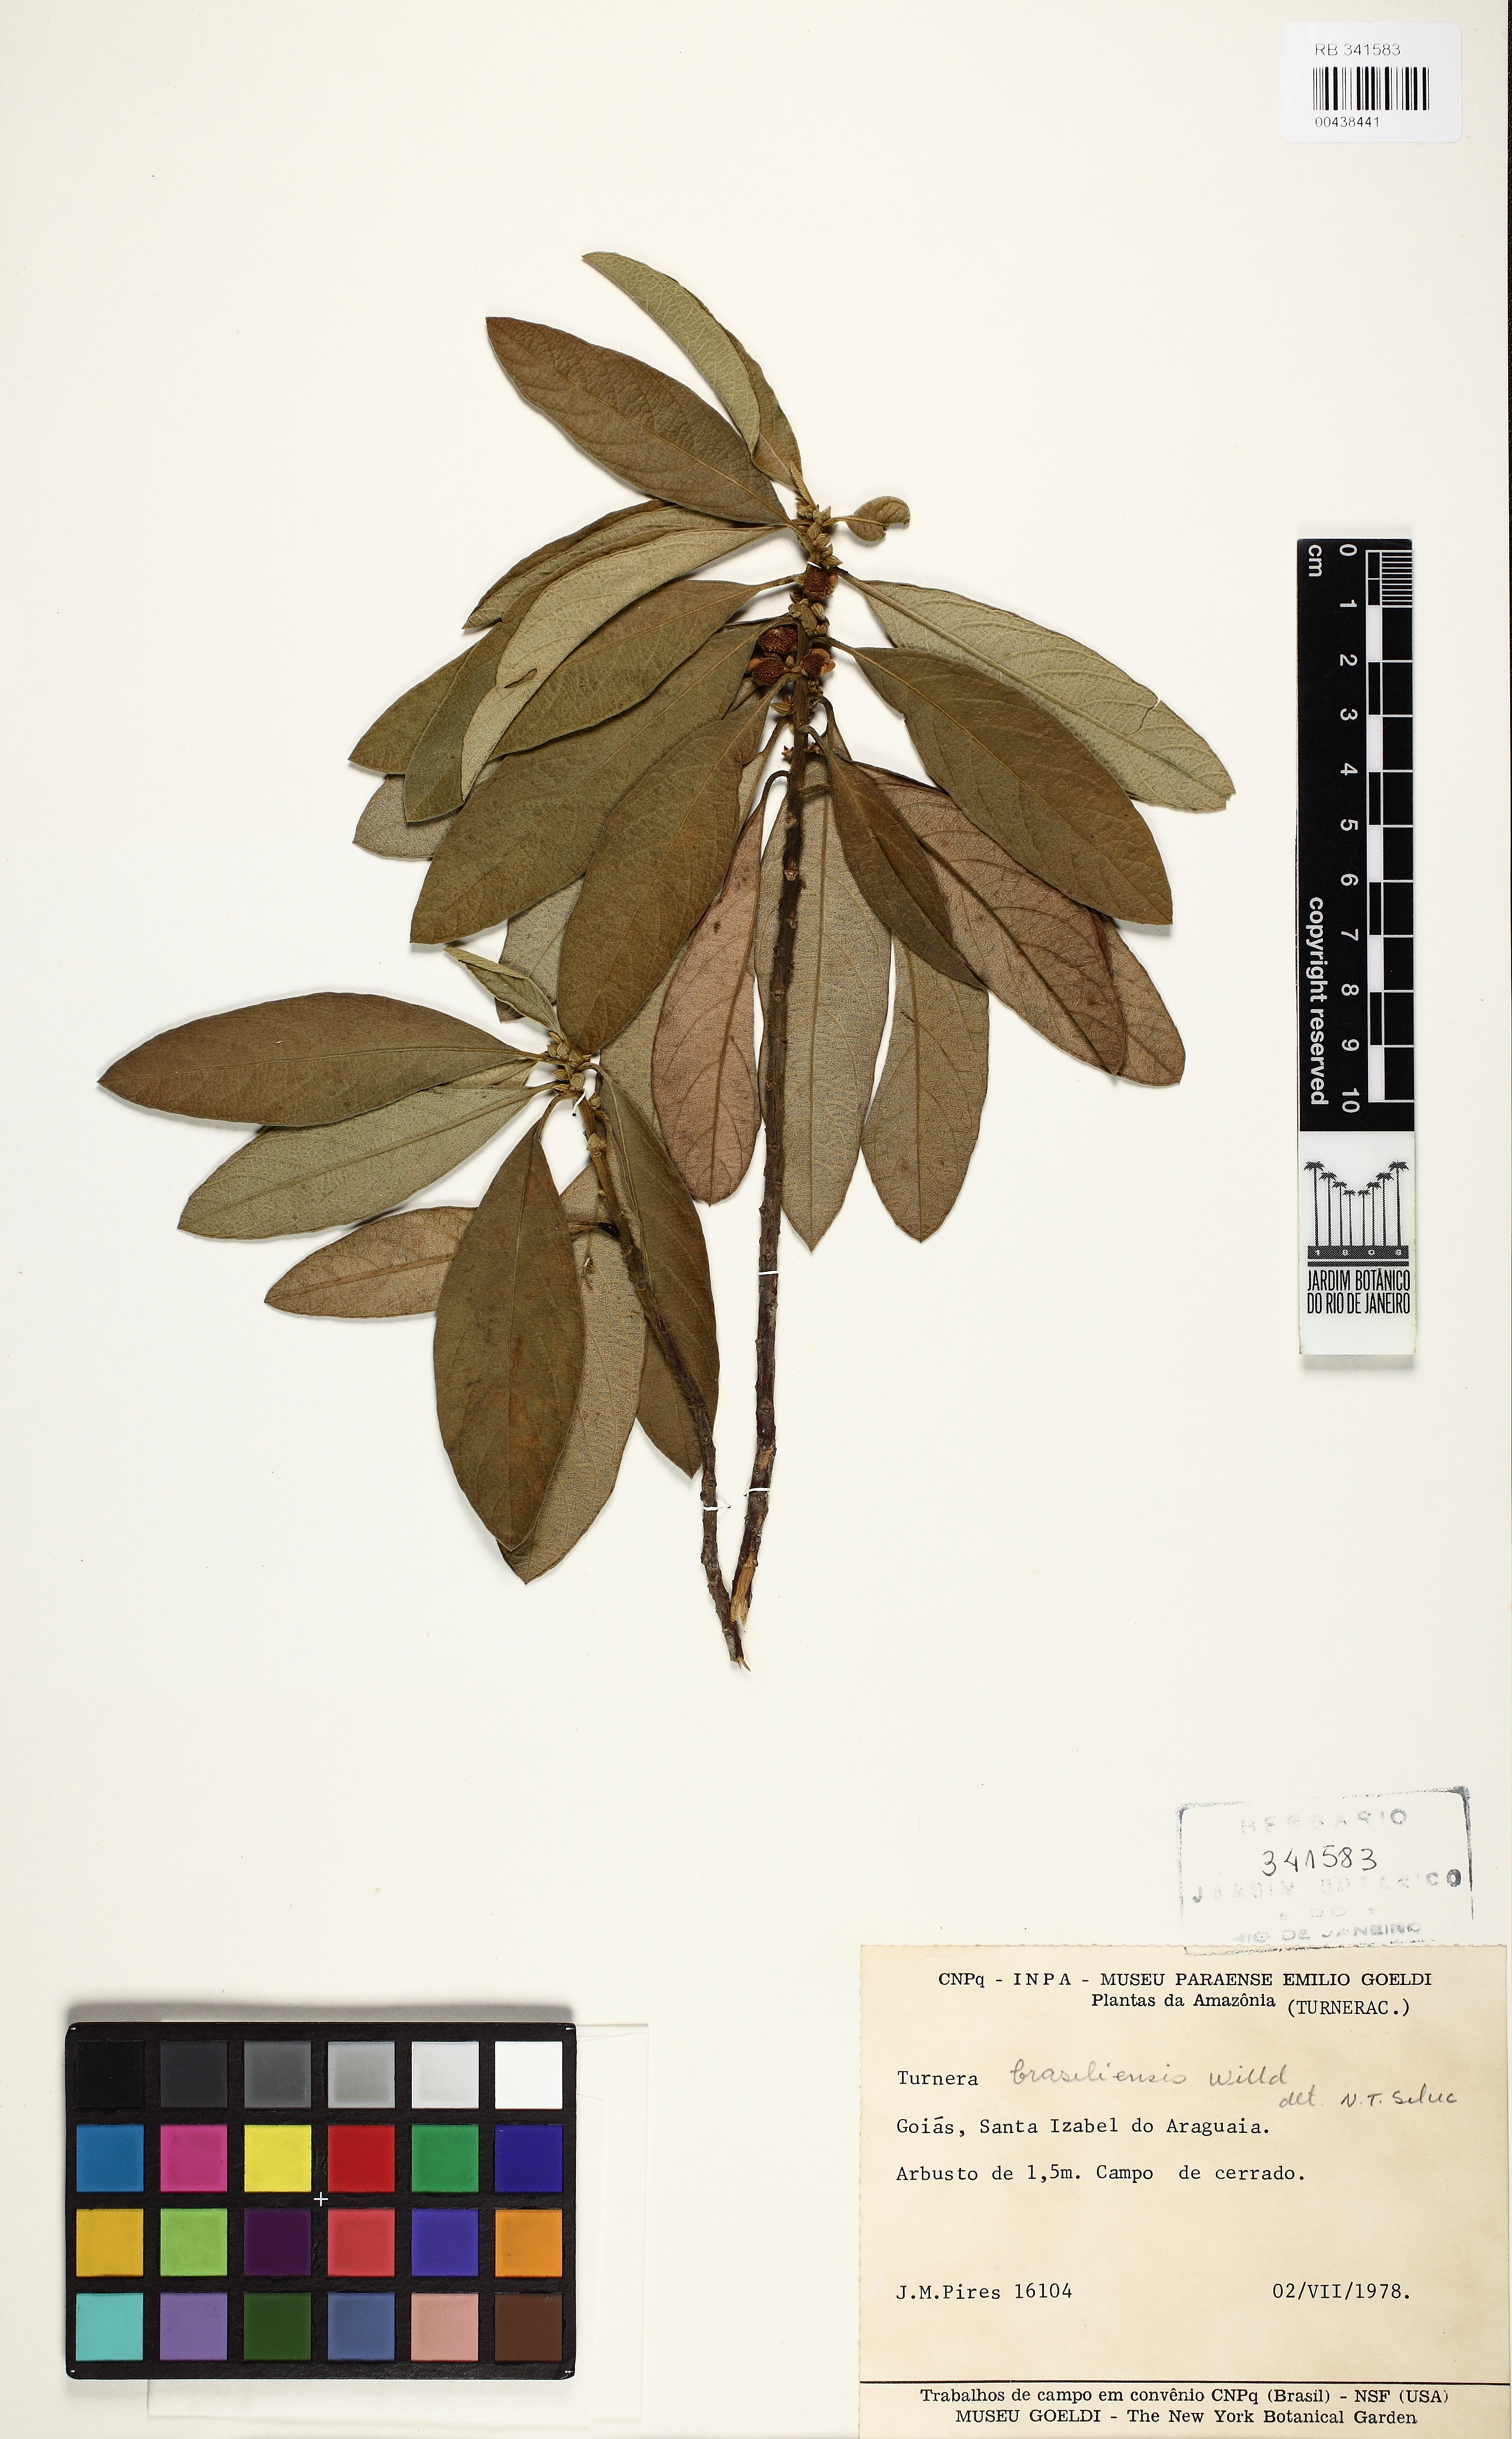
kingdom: Plantae
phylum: Tracheophyta
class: Magnoliopsida
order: Malpighiales
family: Turneraceae
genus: Turnera
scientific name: Turnera brasiliensis
